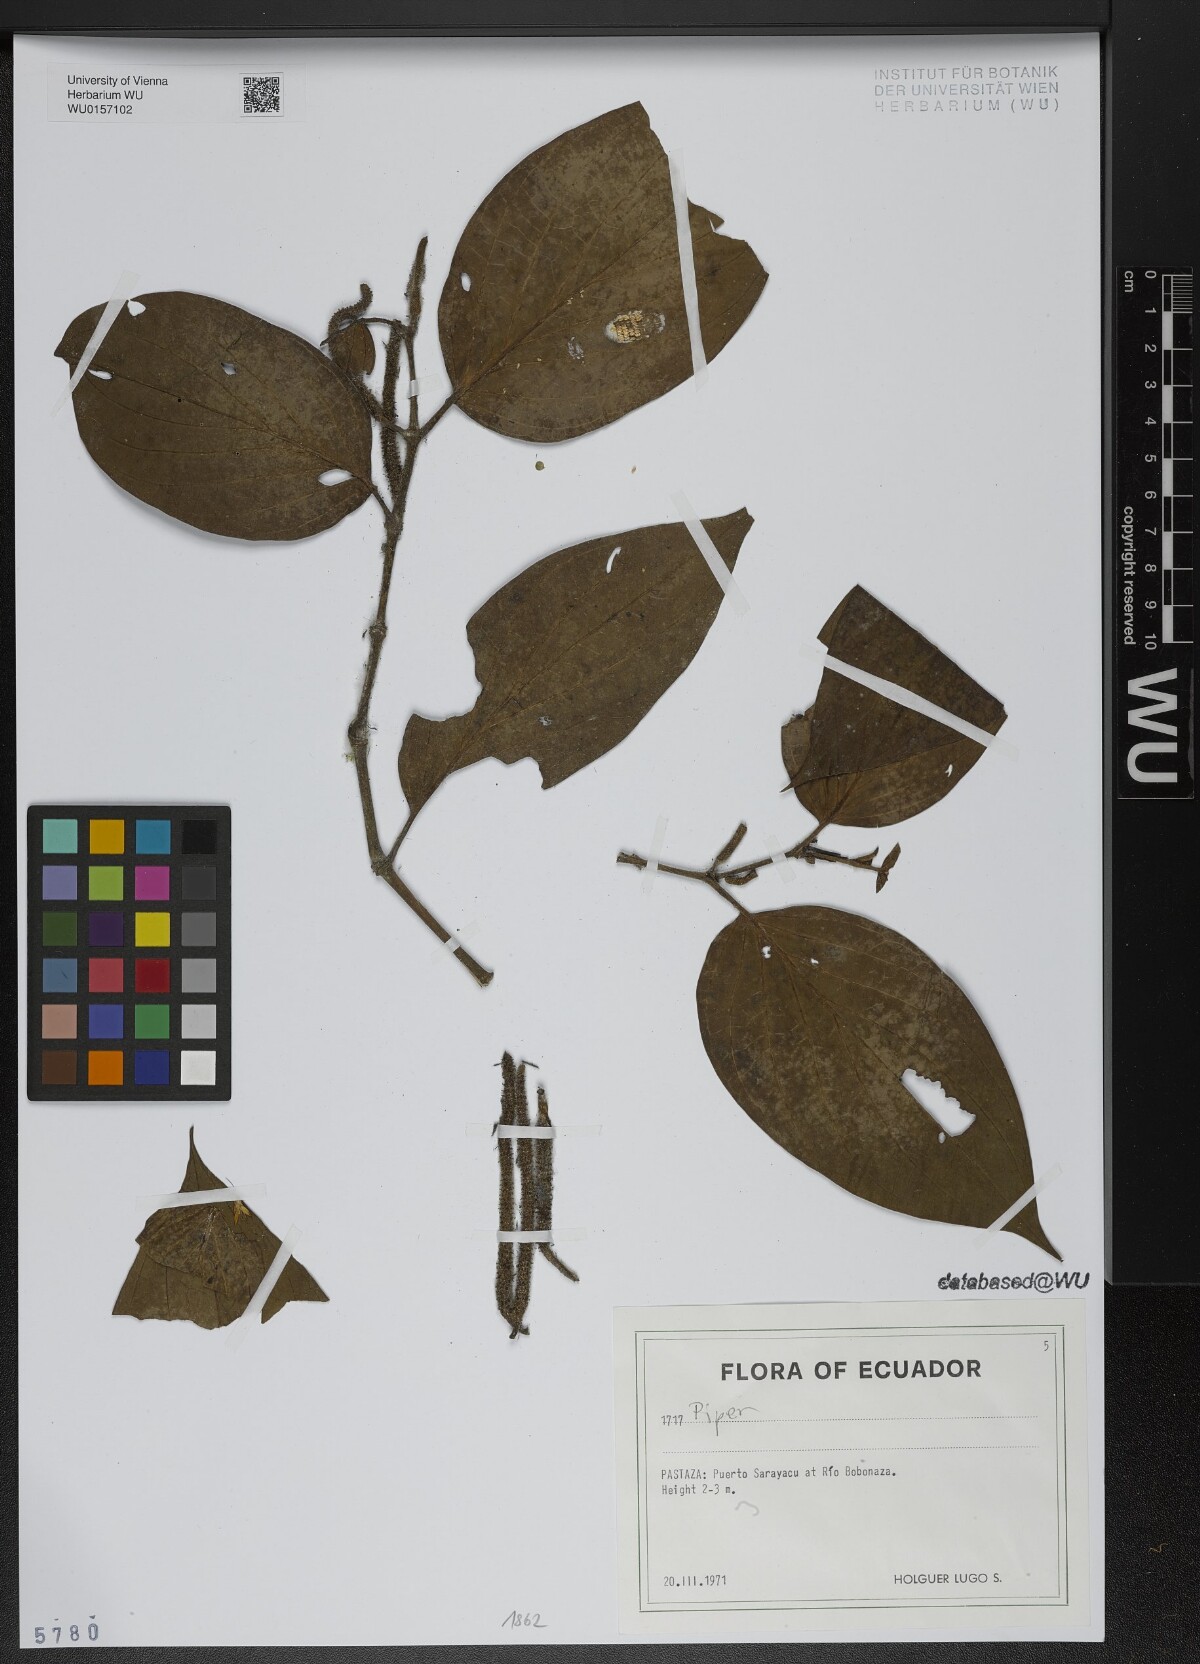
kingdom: Plantae
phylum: Tracheophyta
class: Magnoliopsida
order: Piperales
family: Piperaceae
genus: Piper
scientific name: Piper
